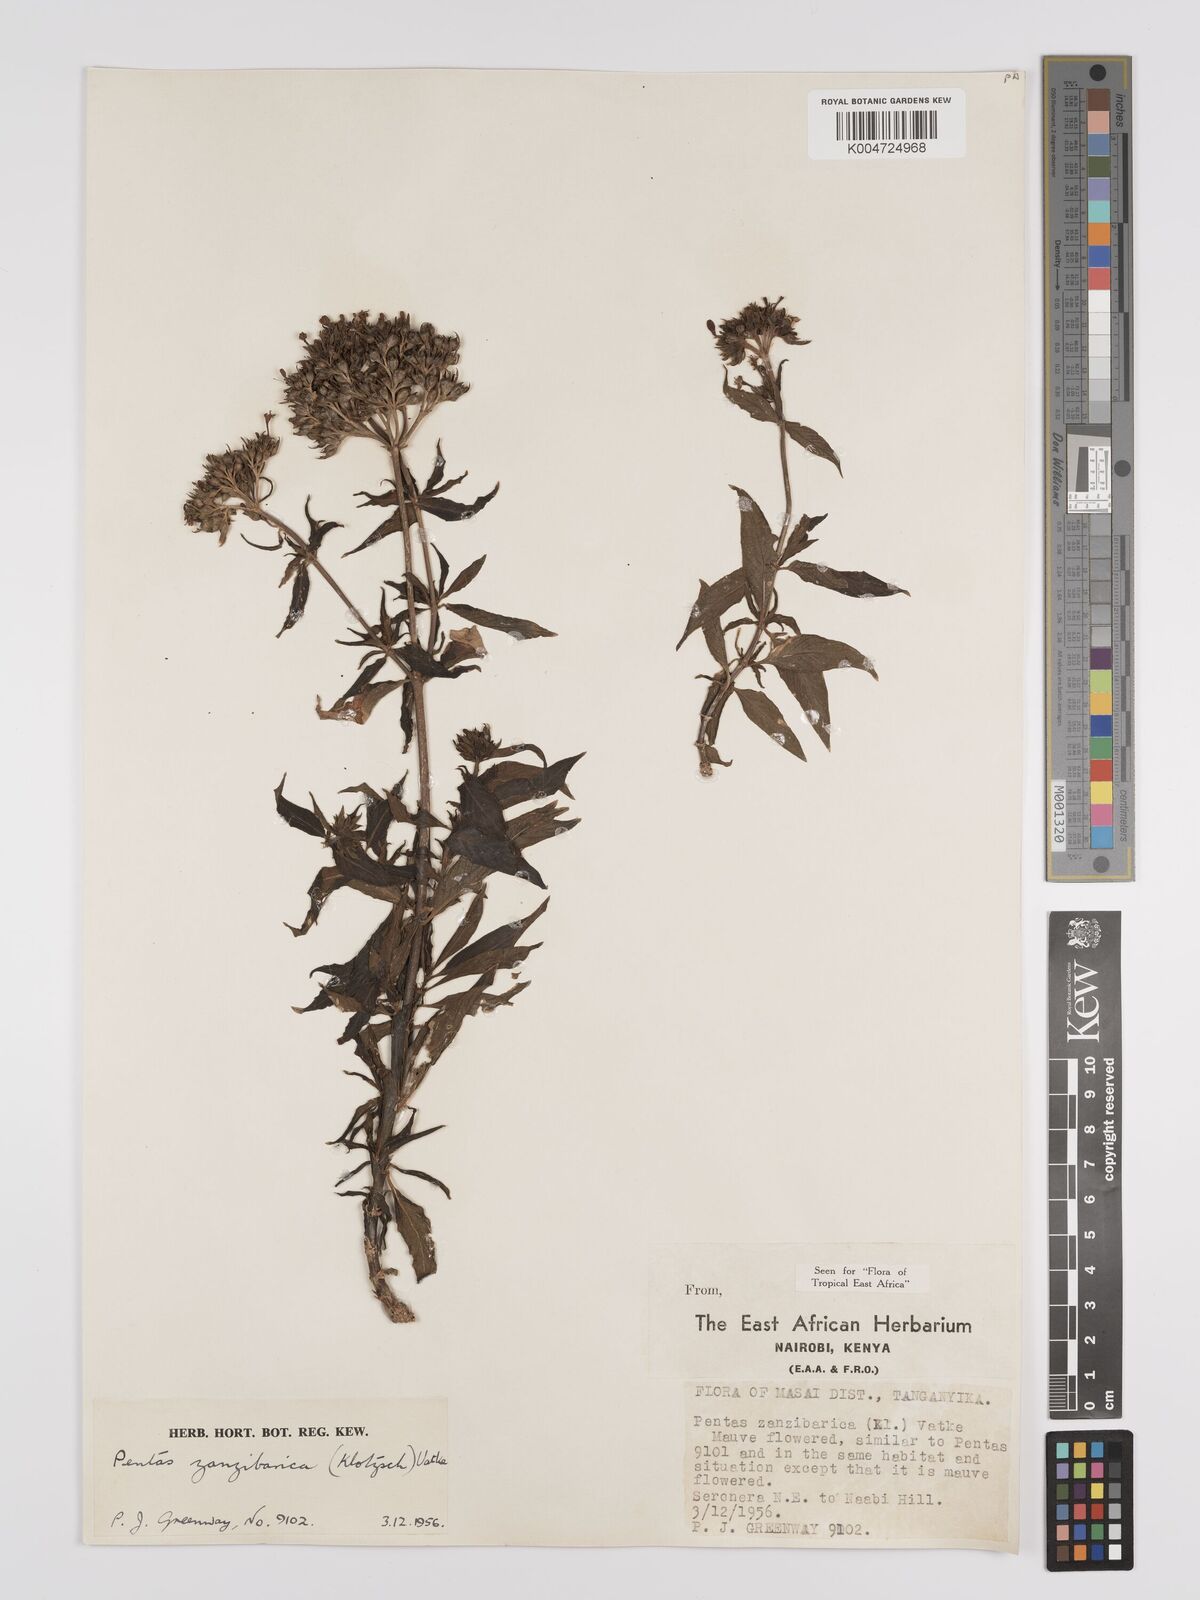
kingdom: Plantae
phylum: Tracheophyta
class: Magnoliopsida
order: Gentianales
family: Rubiaceae
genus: Pentas
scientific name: Pentas zanzibarica
